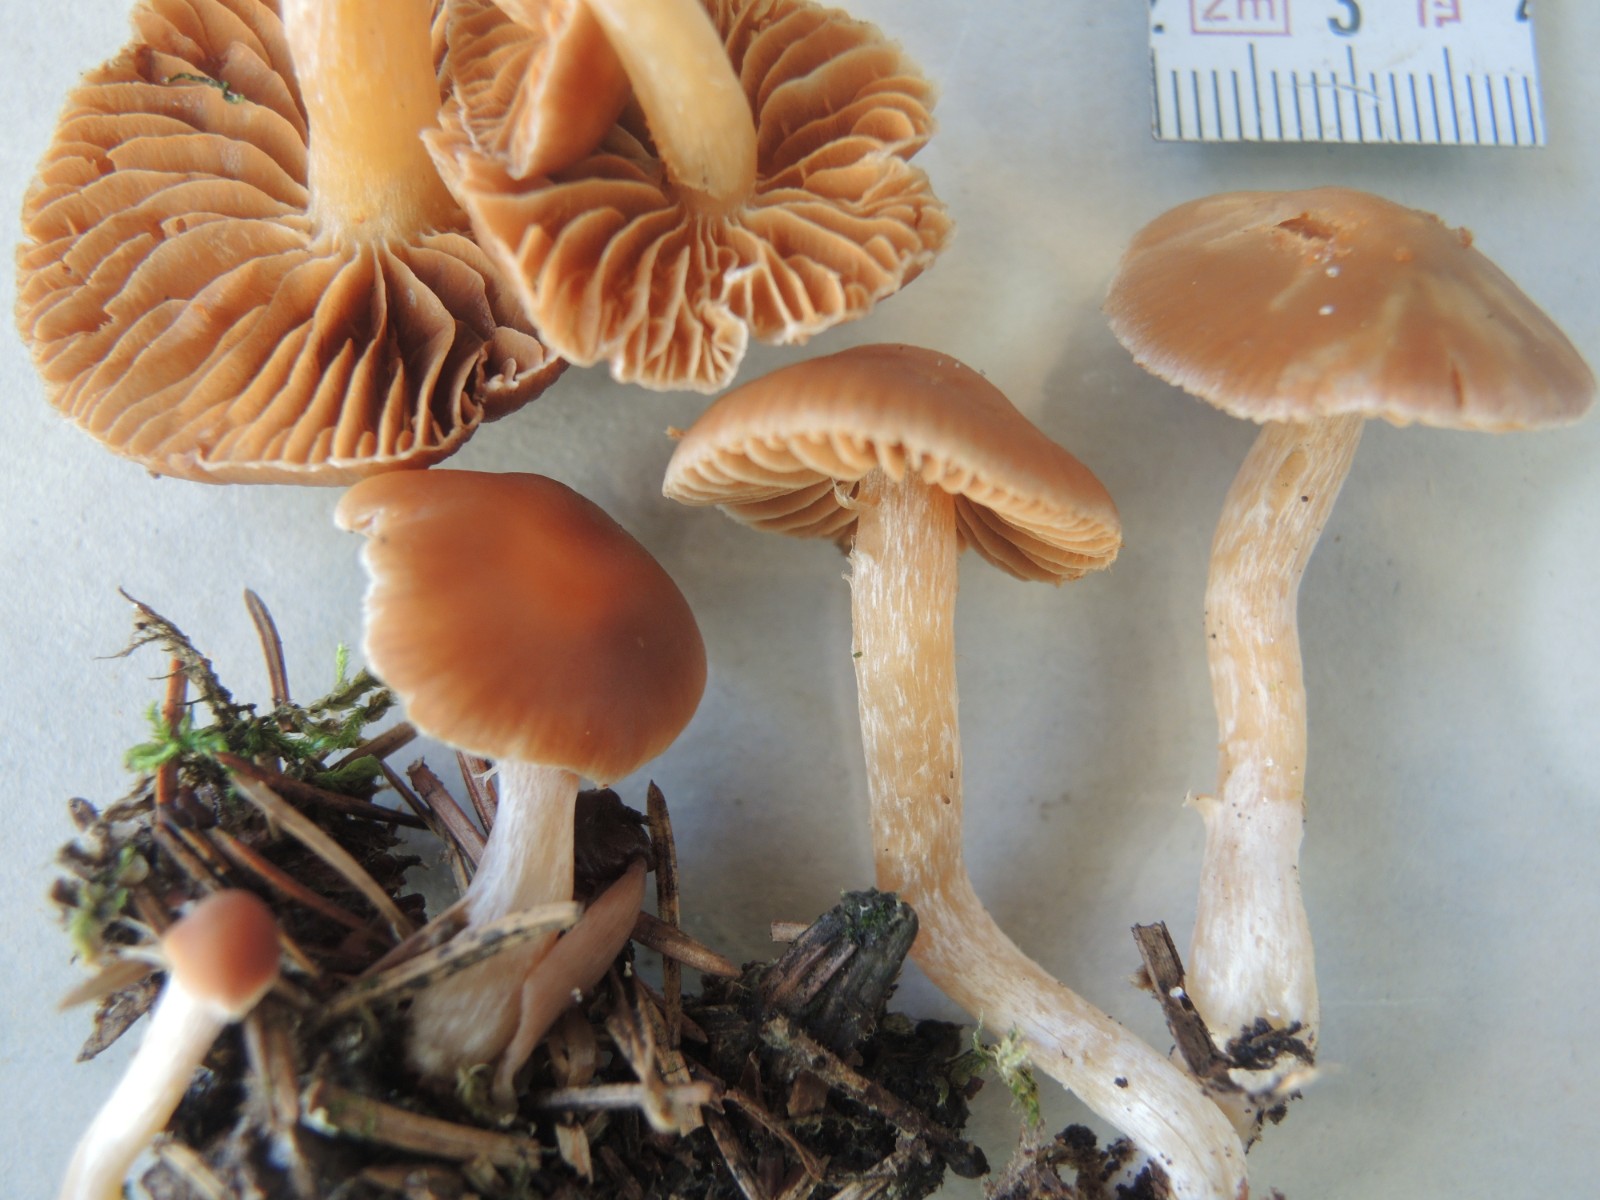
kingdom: Fungi
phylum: Basidiomycota
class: Agaricomycetes
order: Agaricales
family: Cortinariaceae
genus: Cortinarius
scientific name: Cortinarius
